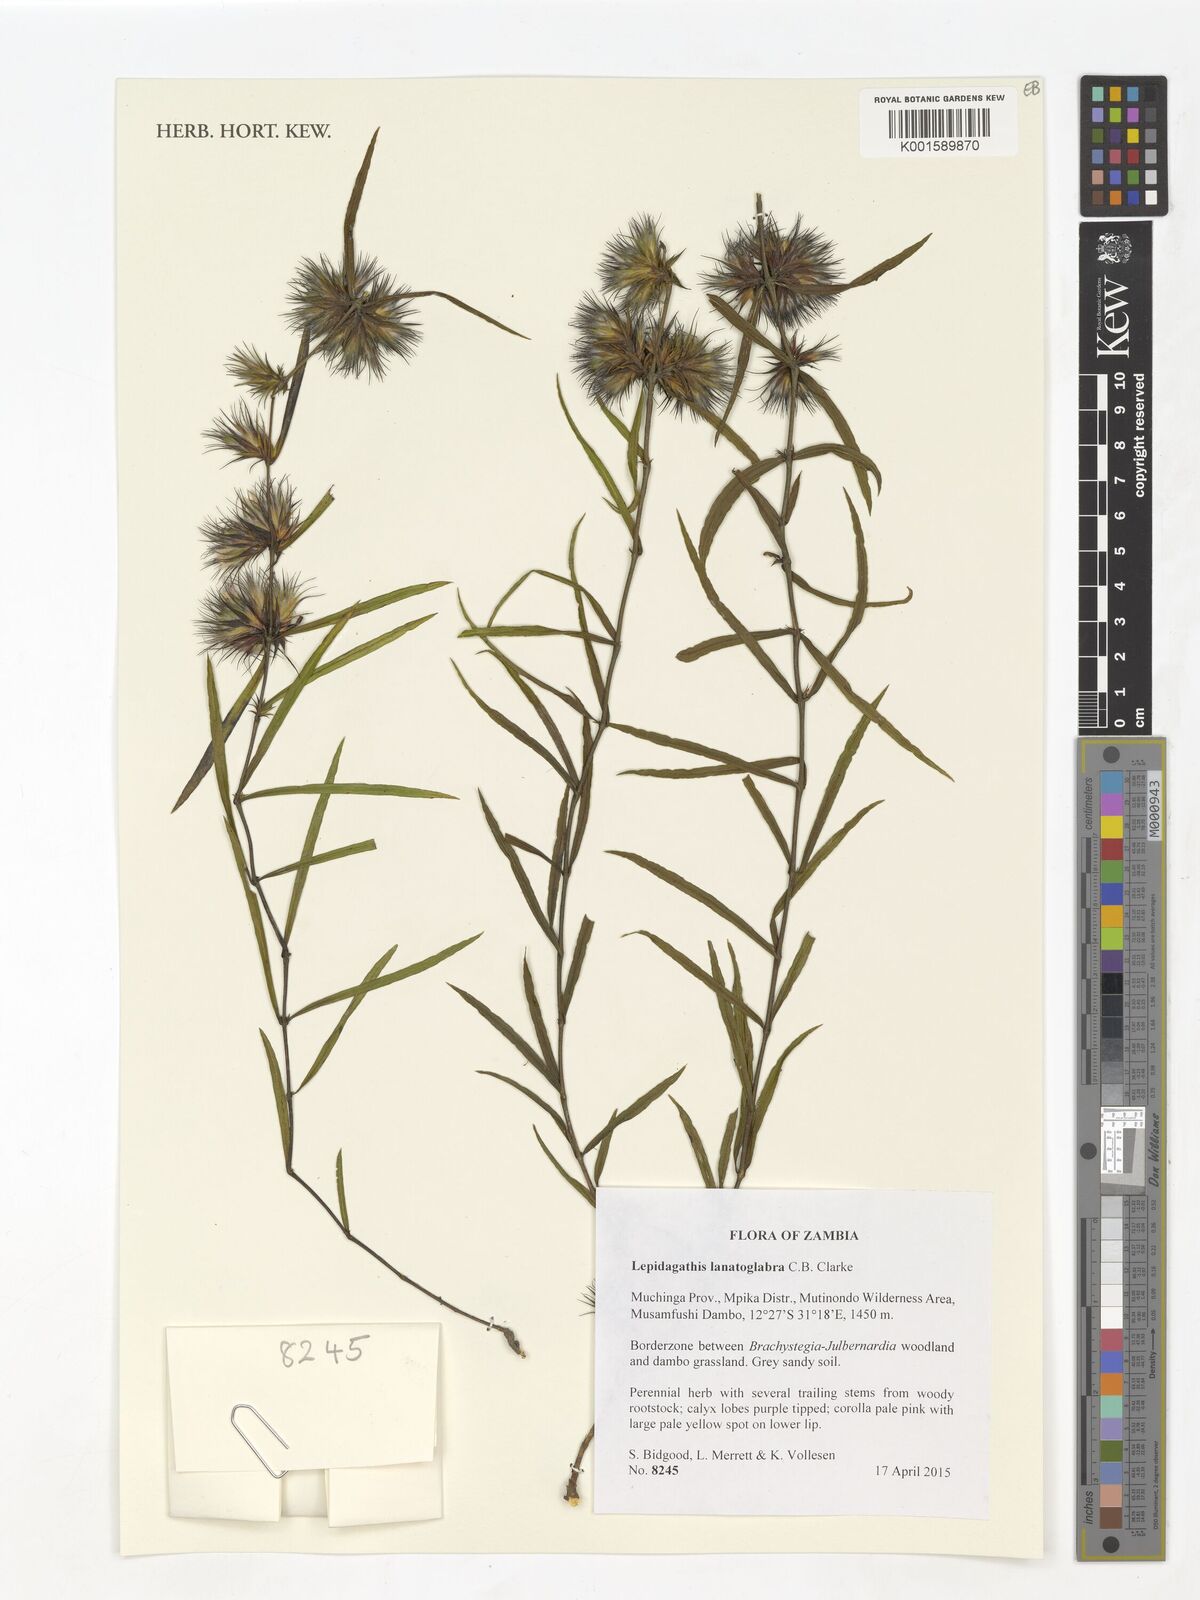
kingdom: Plantae
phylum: Tracheophyta
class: Magnoliopsida
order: Lamiales
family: Acanthaceae
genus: Lepidagathis
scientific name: Lepidagathis lanatoglabra
